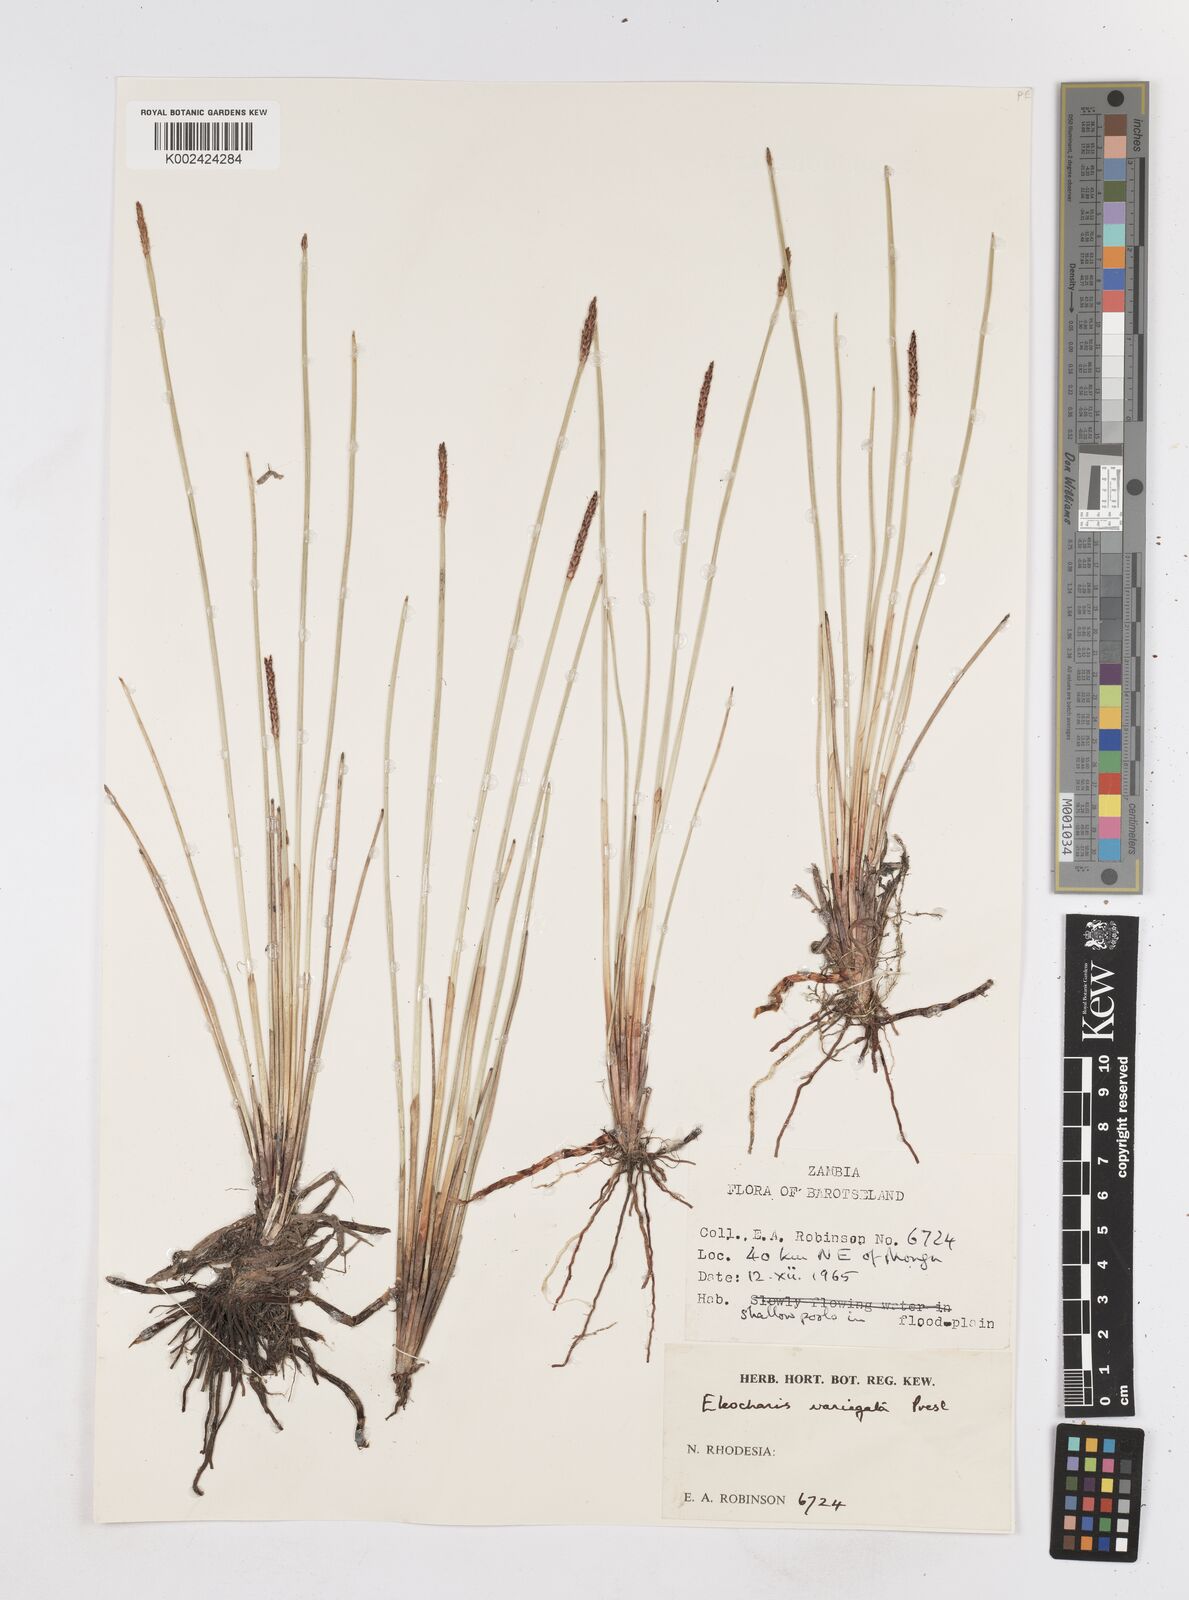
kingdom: Plantae
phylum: Tracheophyta
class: Liliopsida
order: Poales
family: Cyperaceae
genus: Eleocharis
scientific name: Eleocharis variegata
